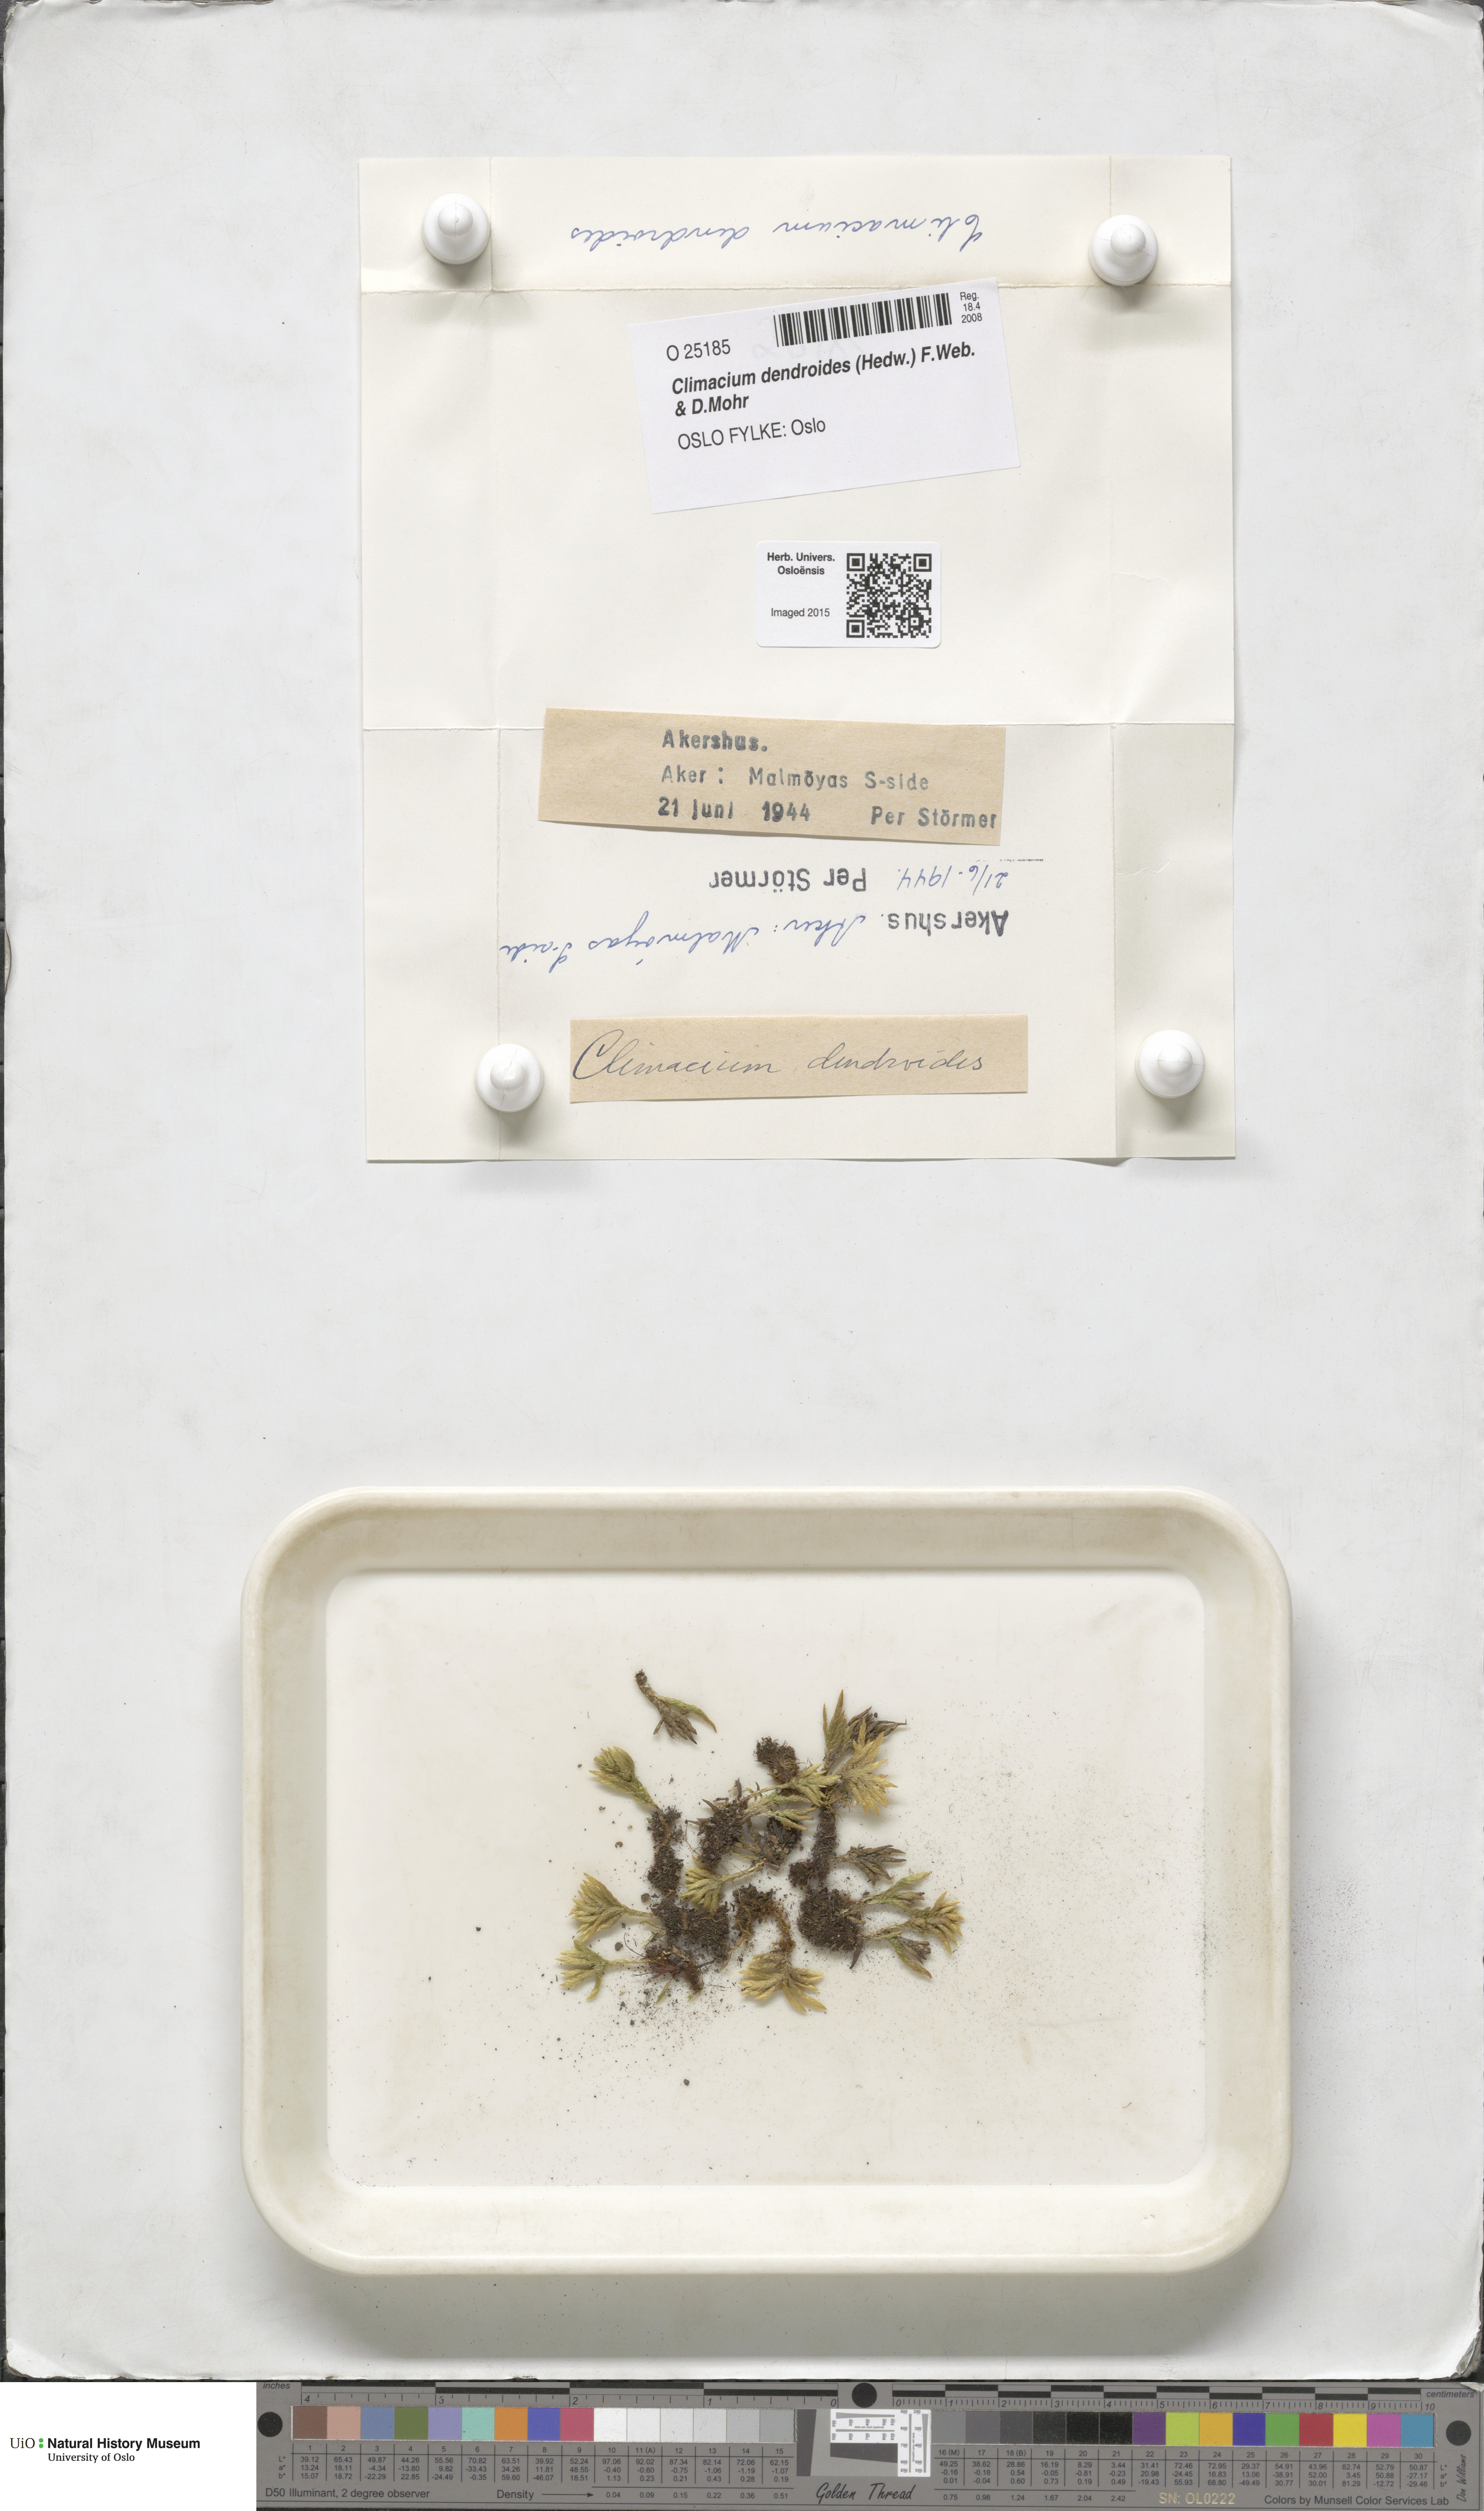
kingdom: Plantae
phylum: Bryophyta
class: Bryopsida
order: Hypnales
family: Climaciaceae
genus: Climacium
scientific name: Climacium dendroides
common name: Northern tree moss
